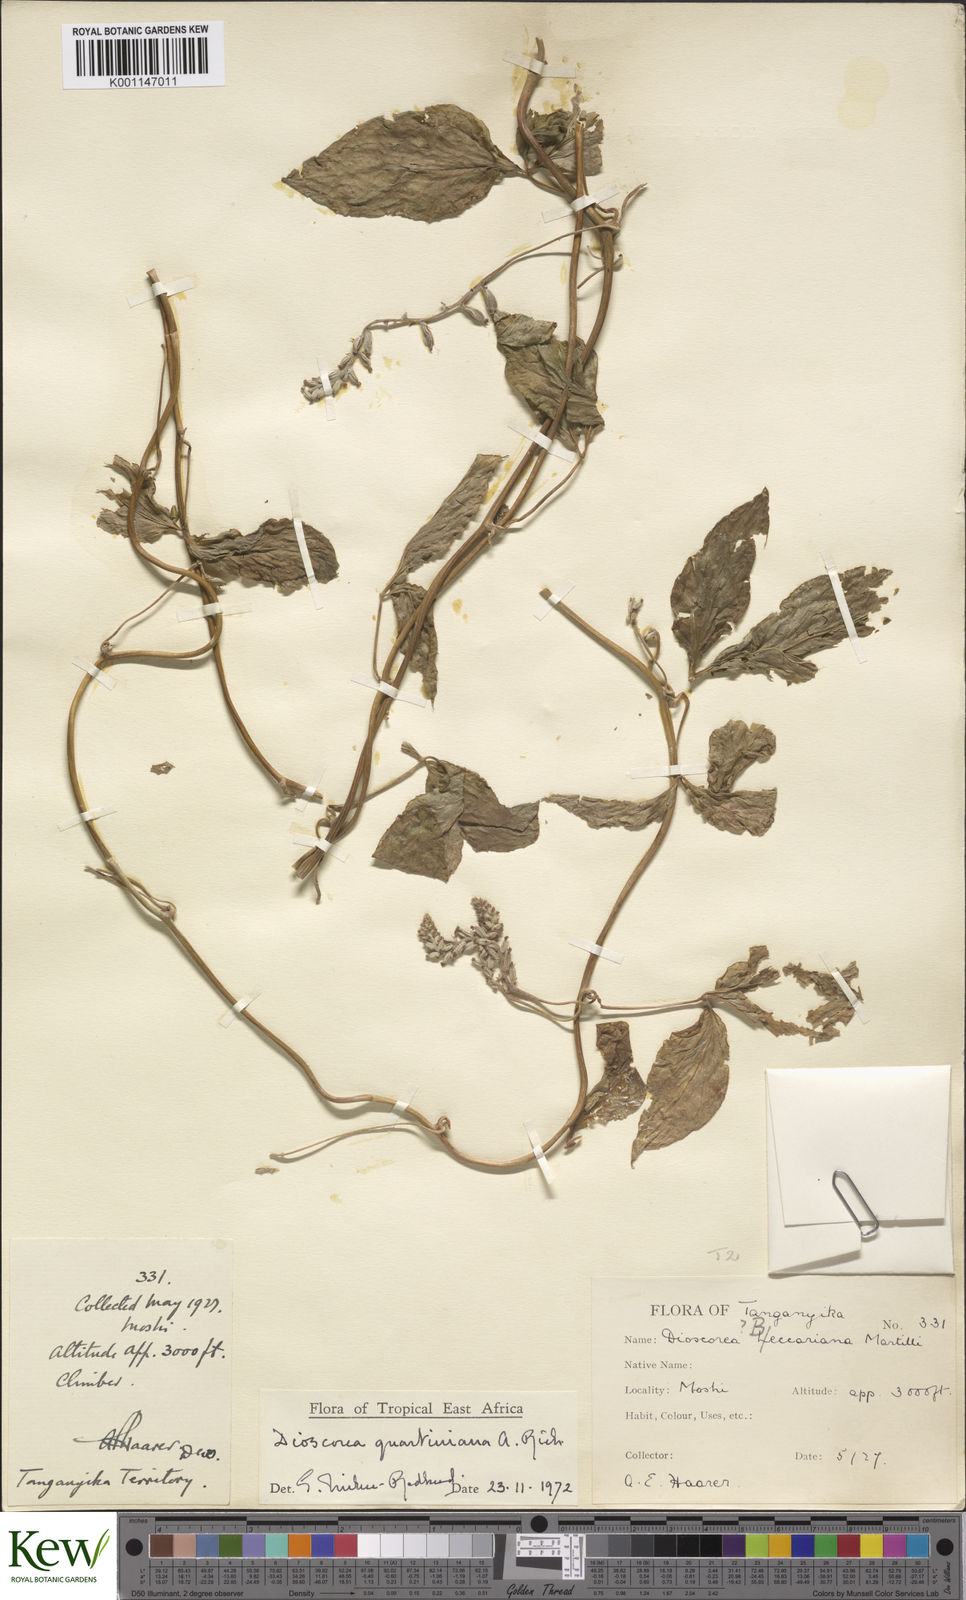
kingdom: Plantae
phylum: Tracheophyta
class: Liliopsida
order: Dioscoreales
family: Dioscoreaceae
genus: Dioscorea
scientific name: Dioscorea quartiniana
